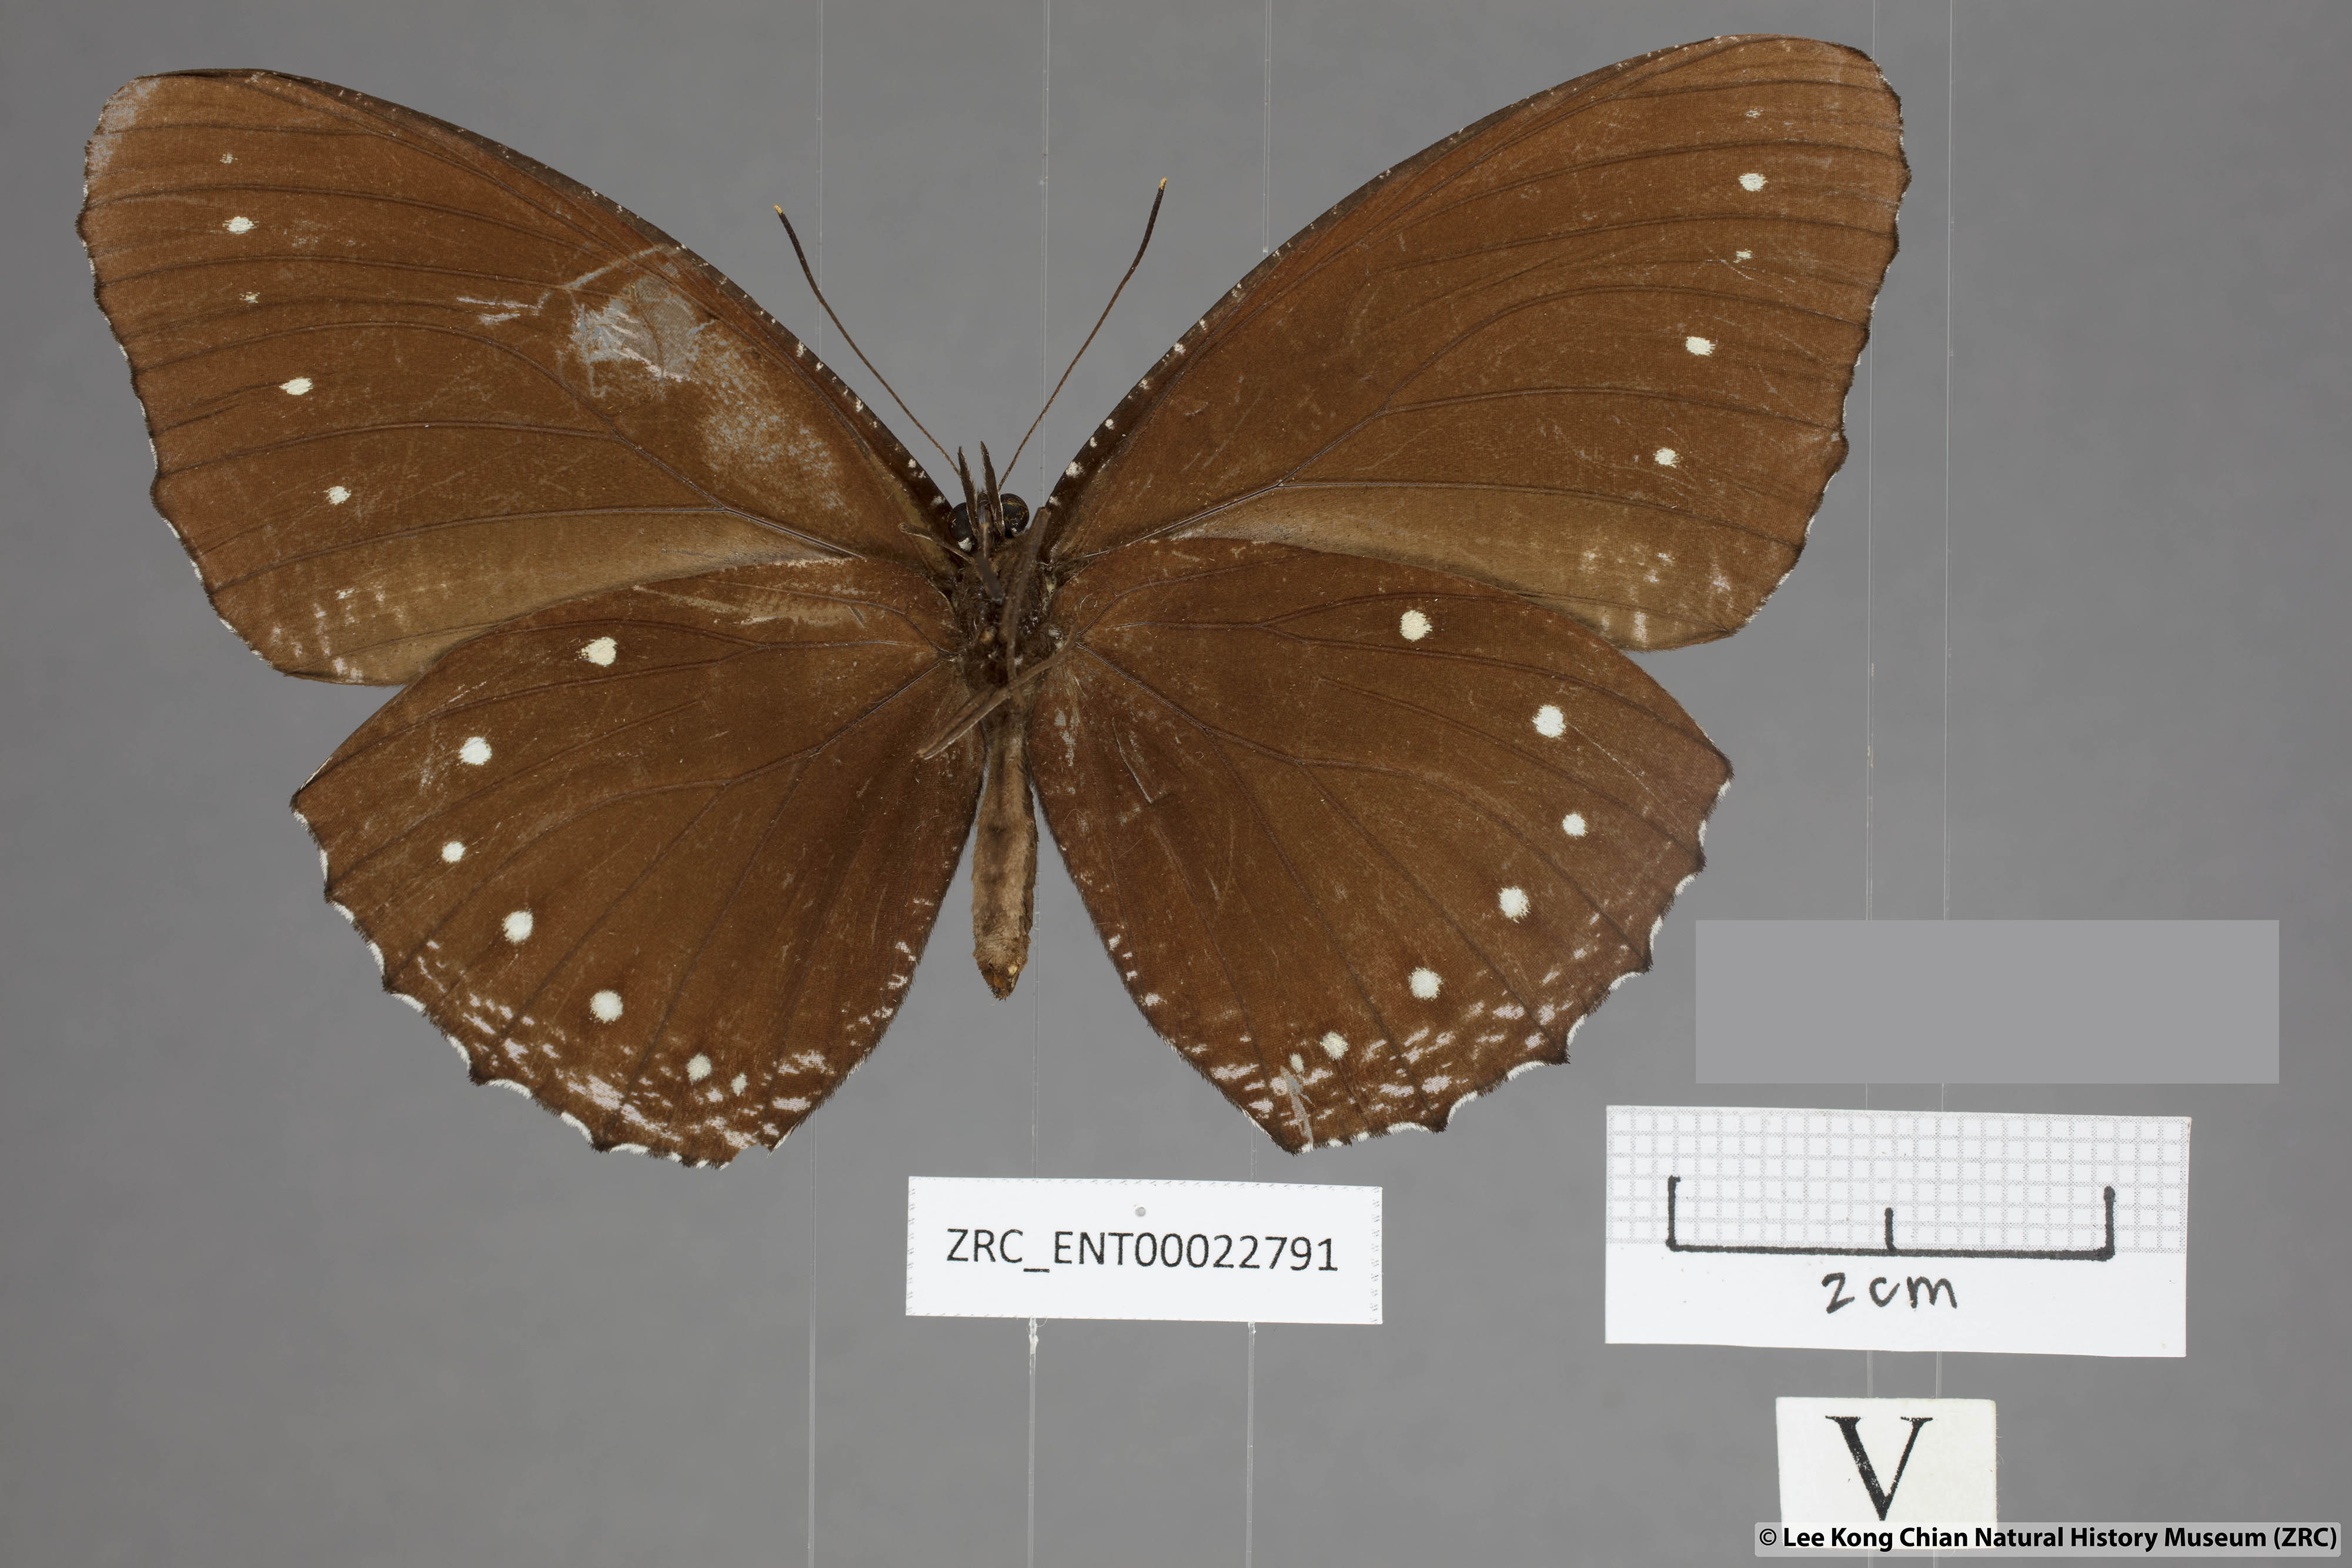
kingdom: Animalia
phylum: Arthropoda
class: Insecta
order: Lepidoptera
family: Nymphalidae
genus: Elymnias
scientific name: Elymnias patna
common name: Blue-striped palmfly
